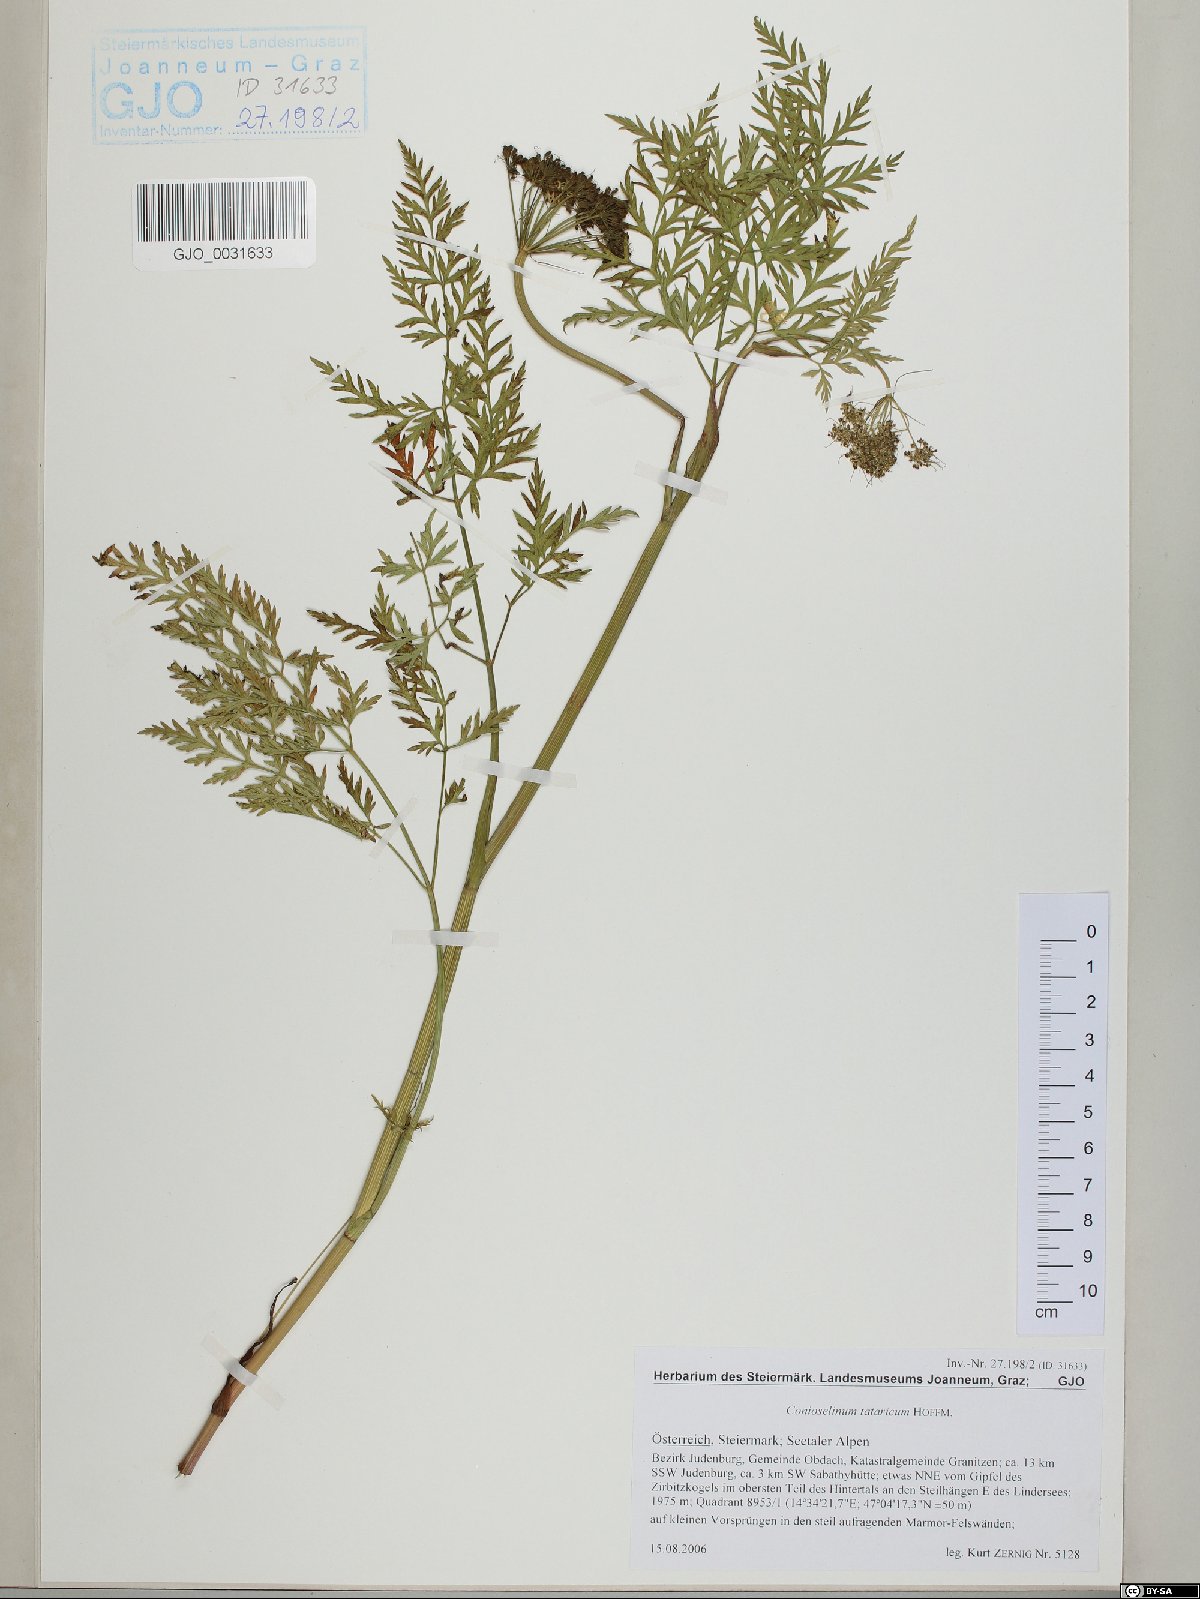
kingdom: Plantae
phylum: Tracheophyta
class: Magnoliopsida
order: Apiales
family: Apiaceae
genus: Conioselinum
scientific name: Conioselinum tataricum
